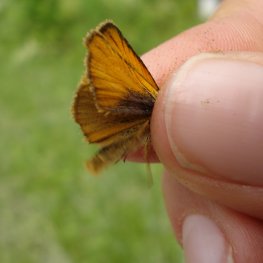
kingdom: Animalia
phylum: Arthropoda
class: Insecta
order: Lepidoptera
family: Hesperiidae
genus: Thymelicus
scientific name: Thymelicus lineola
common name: European Skipper
